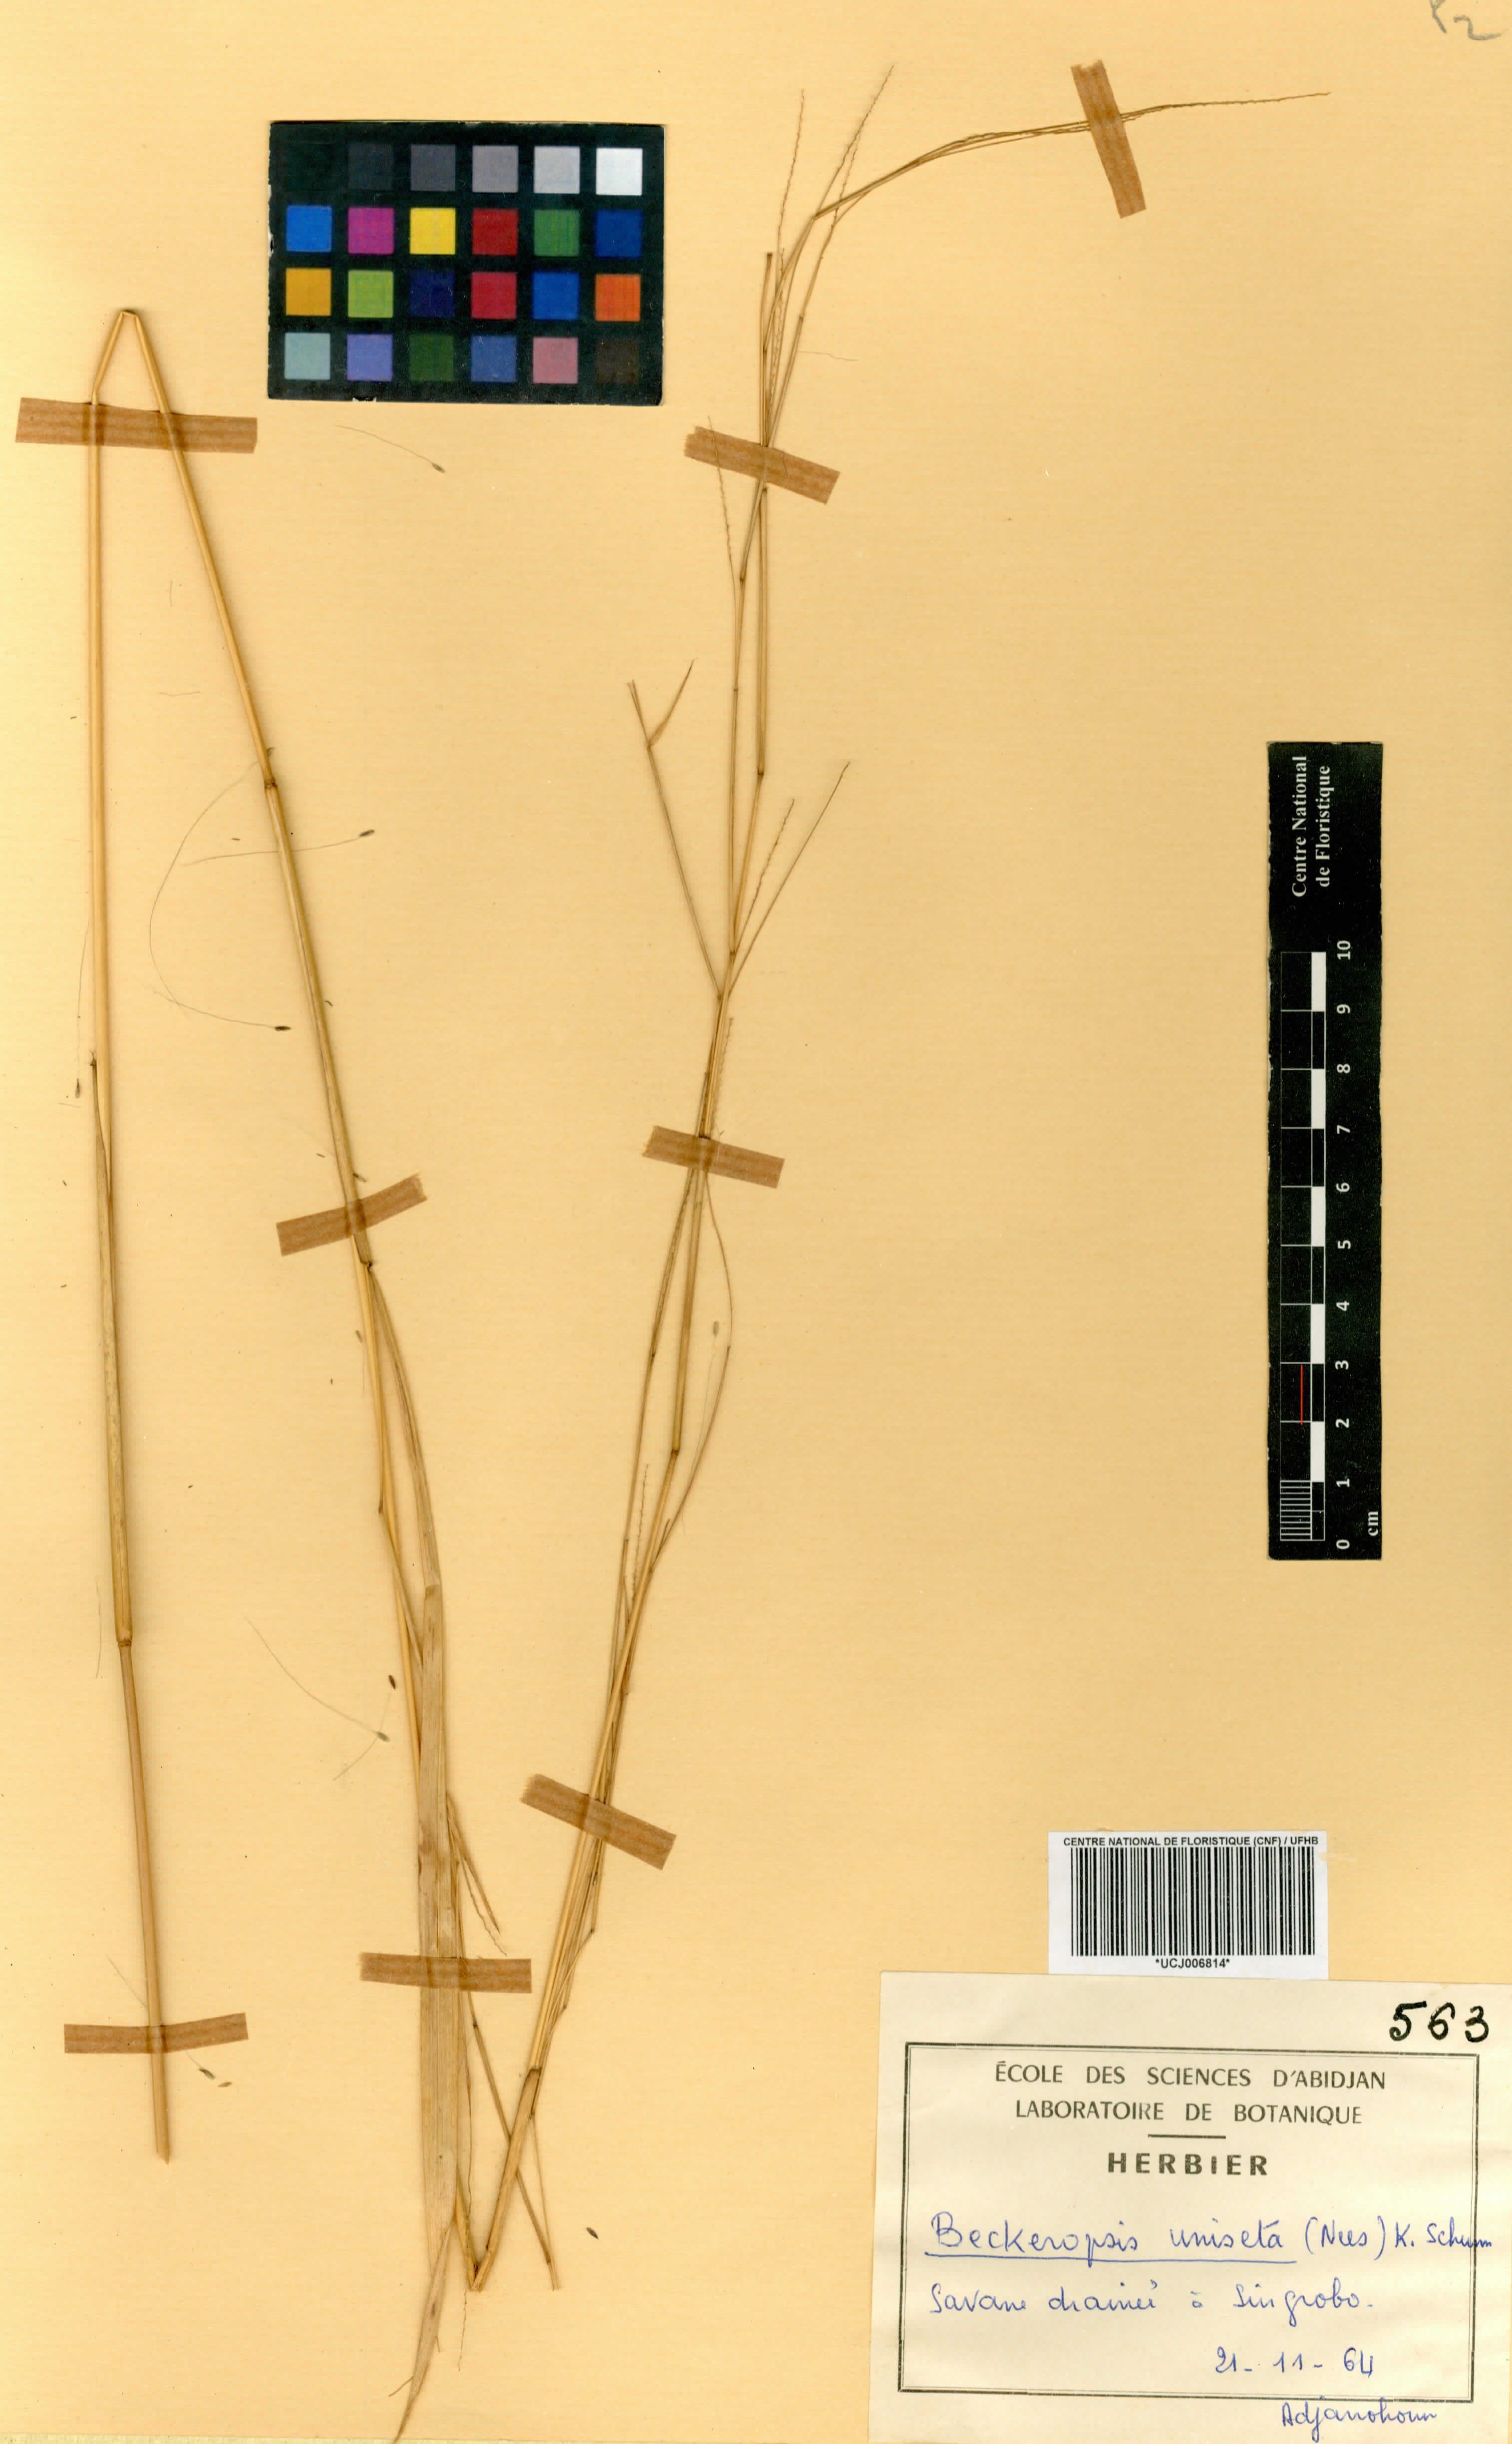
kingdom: Plantae
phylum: Tracheophyta
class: Liliopsida
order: Poales
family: Poaceae
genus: Cenchrus
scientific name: Cenchrus unisetus
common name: Natal grass
